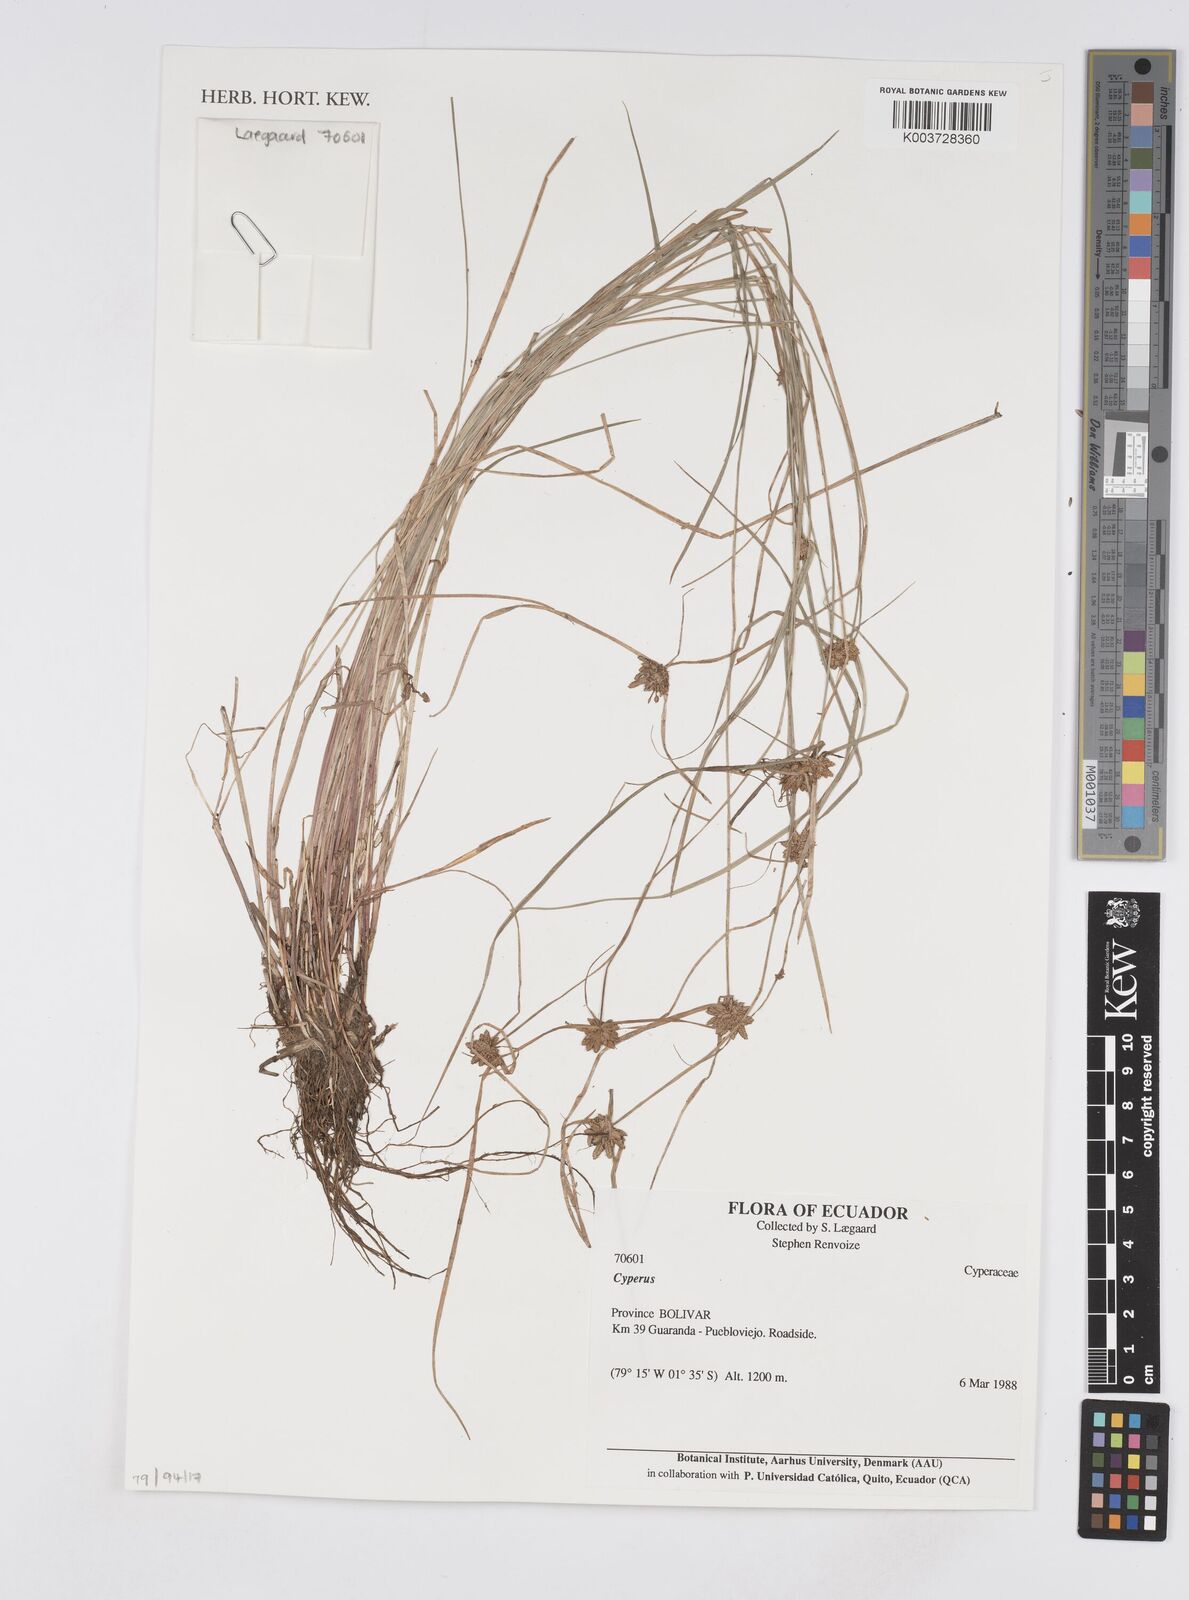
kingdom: Plantae
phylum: Tracheophyta
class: Liliopsida
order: Poales
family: Cyperaceae
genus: Cyperus
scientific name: Cyperus
